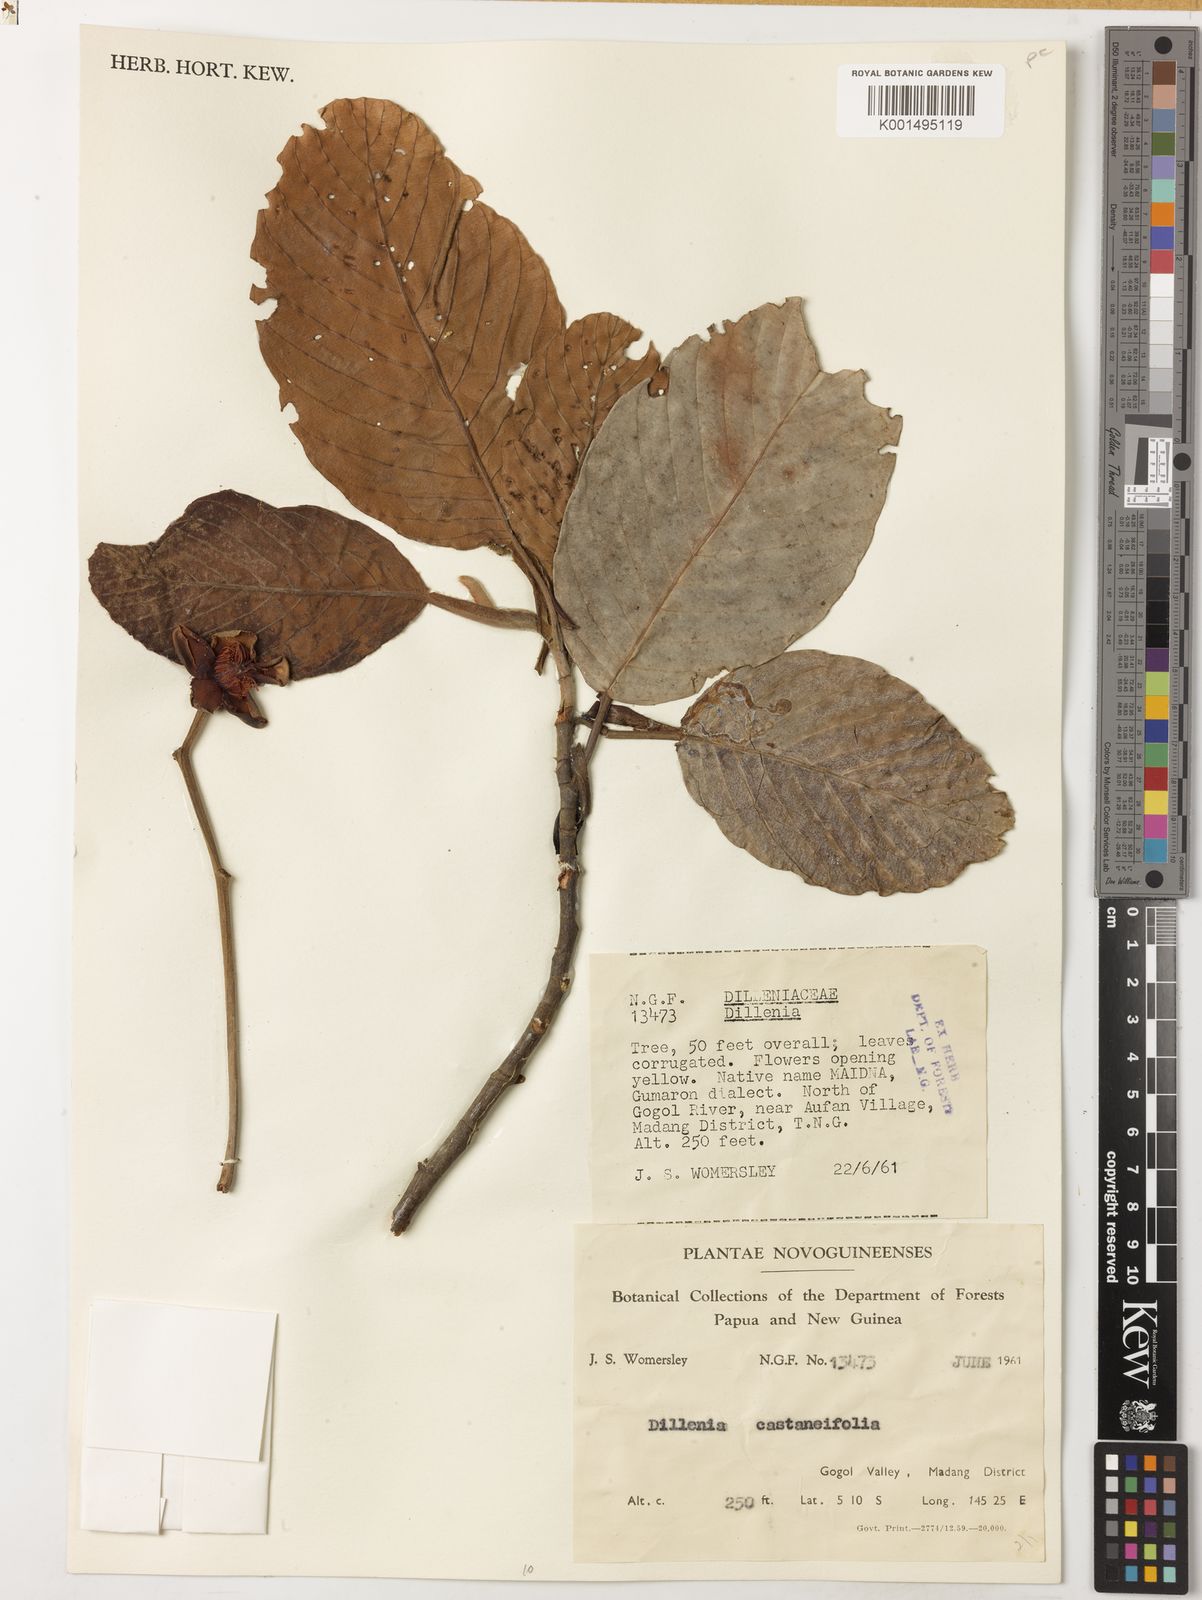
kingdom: Plantae
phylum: Tracheophyta
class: Magnoliopsida
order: Dilleniales
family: Dilleniaceae
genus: Dillenia
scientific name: Dillenia castaneifolia
